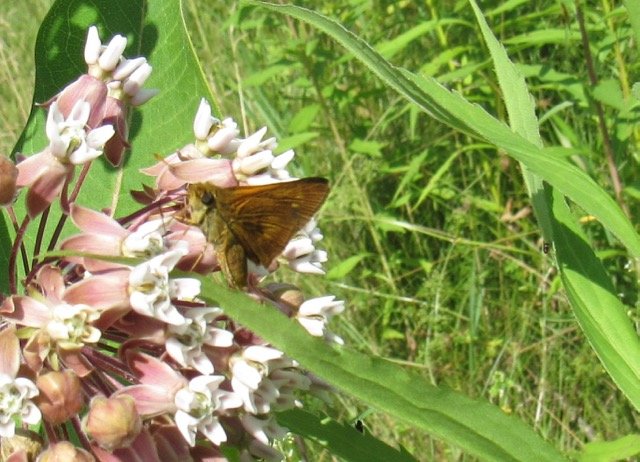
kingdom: Animalia
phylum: Arthropoda
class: Insecta
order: Lepidoptera
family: Hesperiidae
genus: Euphyes
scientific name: Euphyes conspicua
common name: Black Dash
